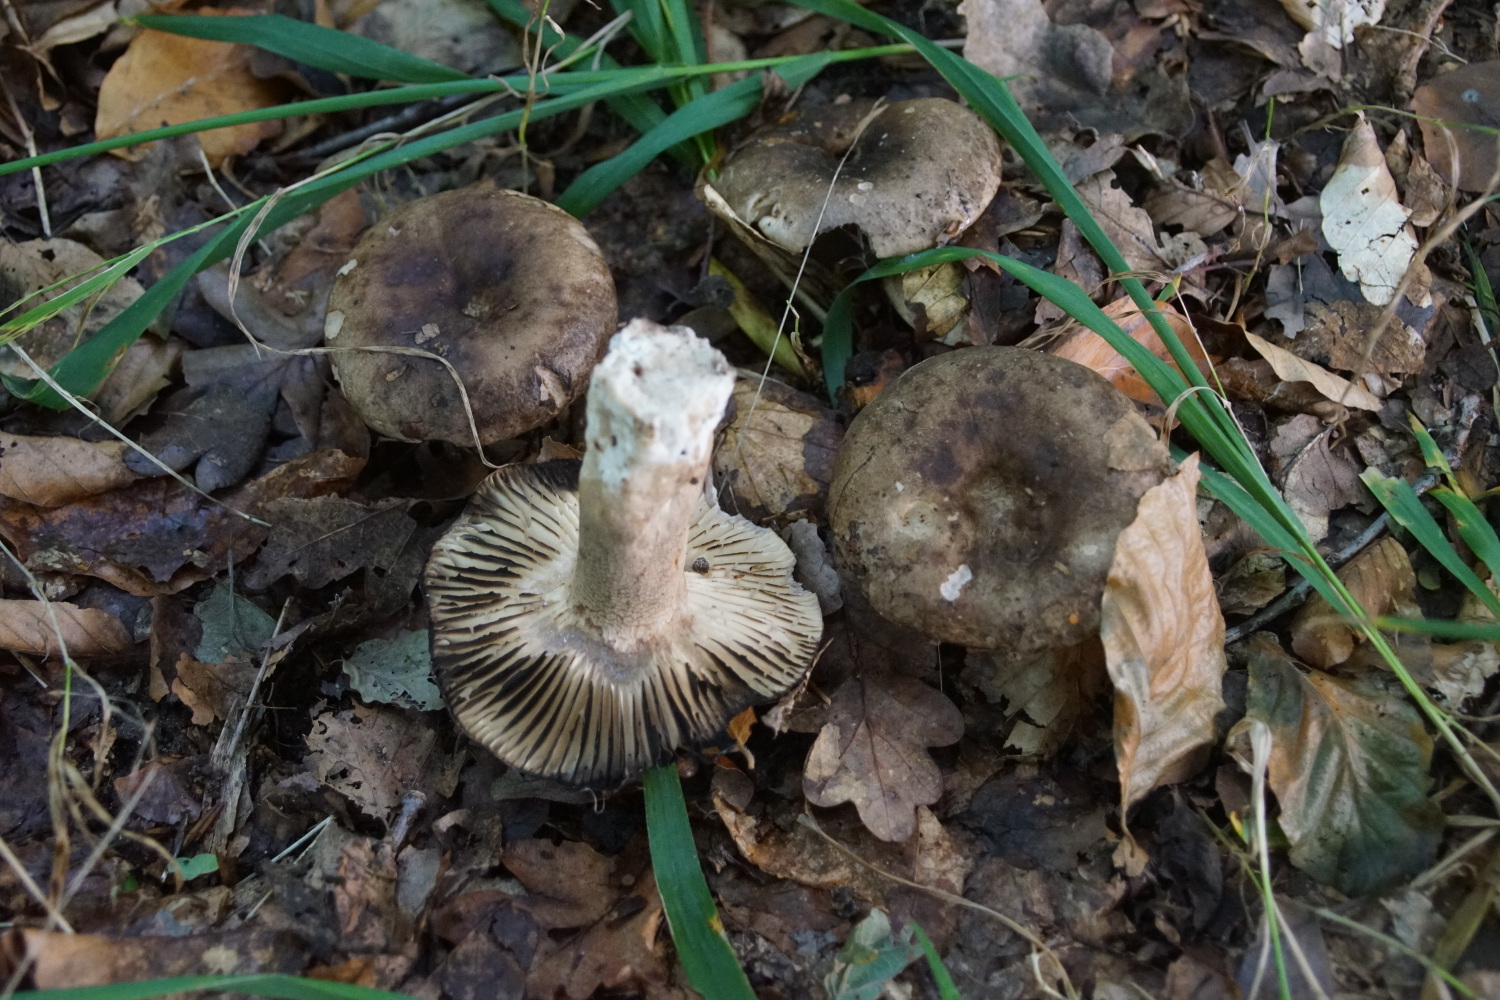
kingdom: Fungi
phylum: Basidiomycota
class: Agaricomycetes
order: Russulales
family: Russulaceae
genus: Russula
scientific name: Russula adusta
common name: sværtende skørhat
